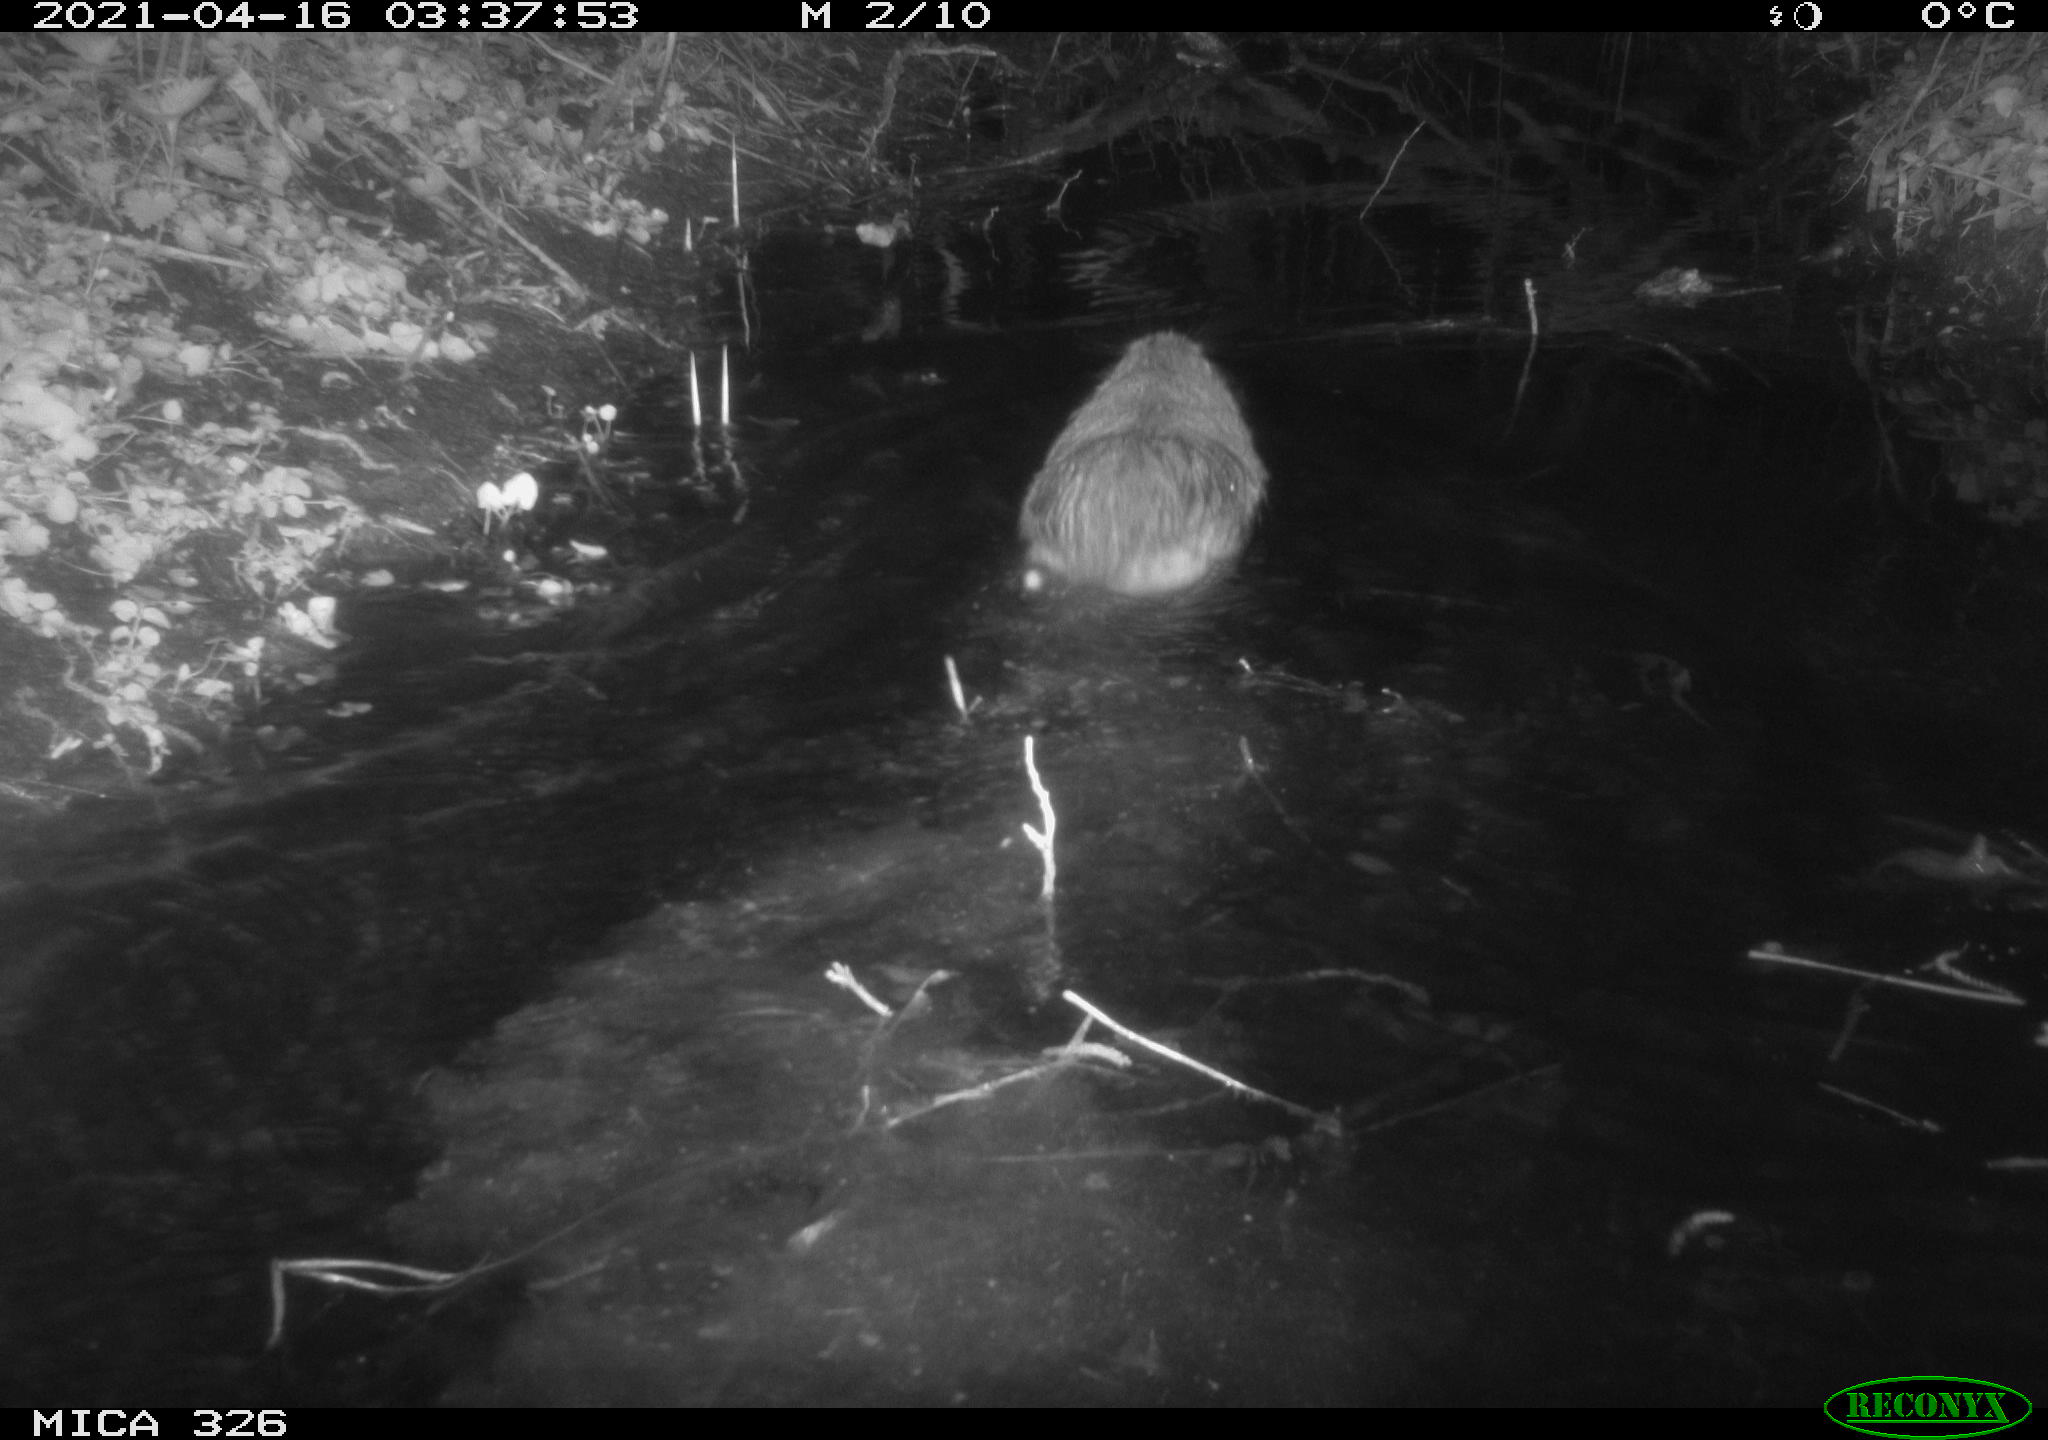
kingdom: Animalia
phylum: Chordata
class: Mammalia
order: Rodentia
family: Myocastoridae
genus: Myocastor
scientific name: Myocastor coypus
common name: Coypu
